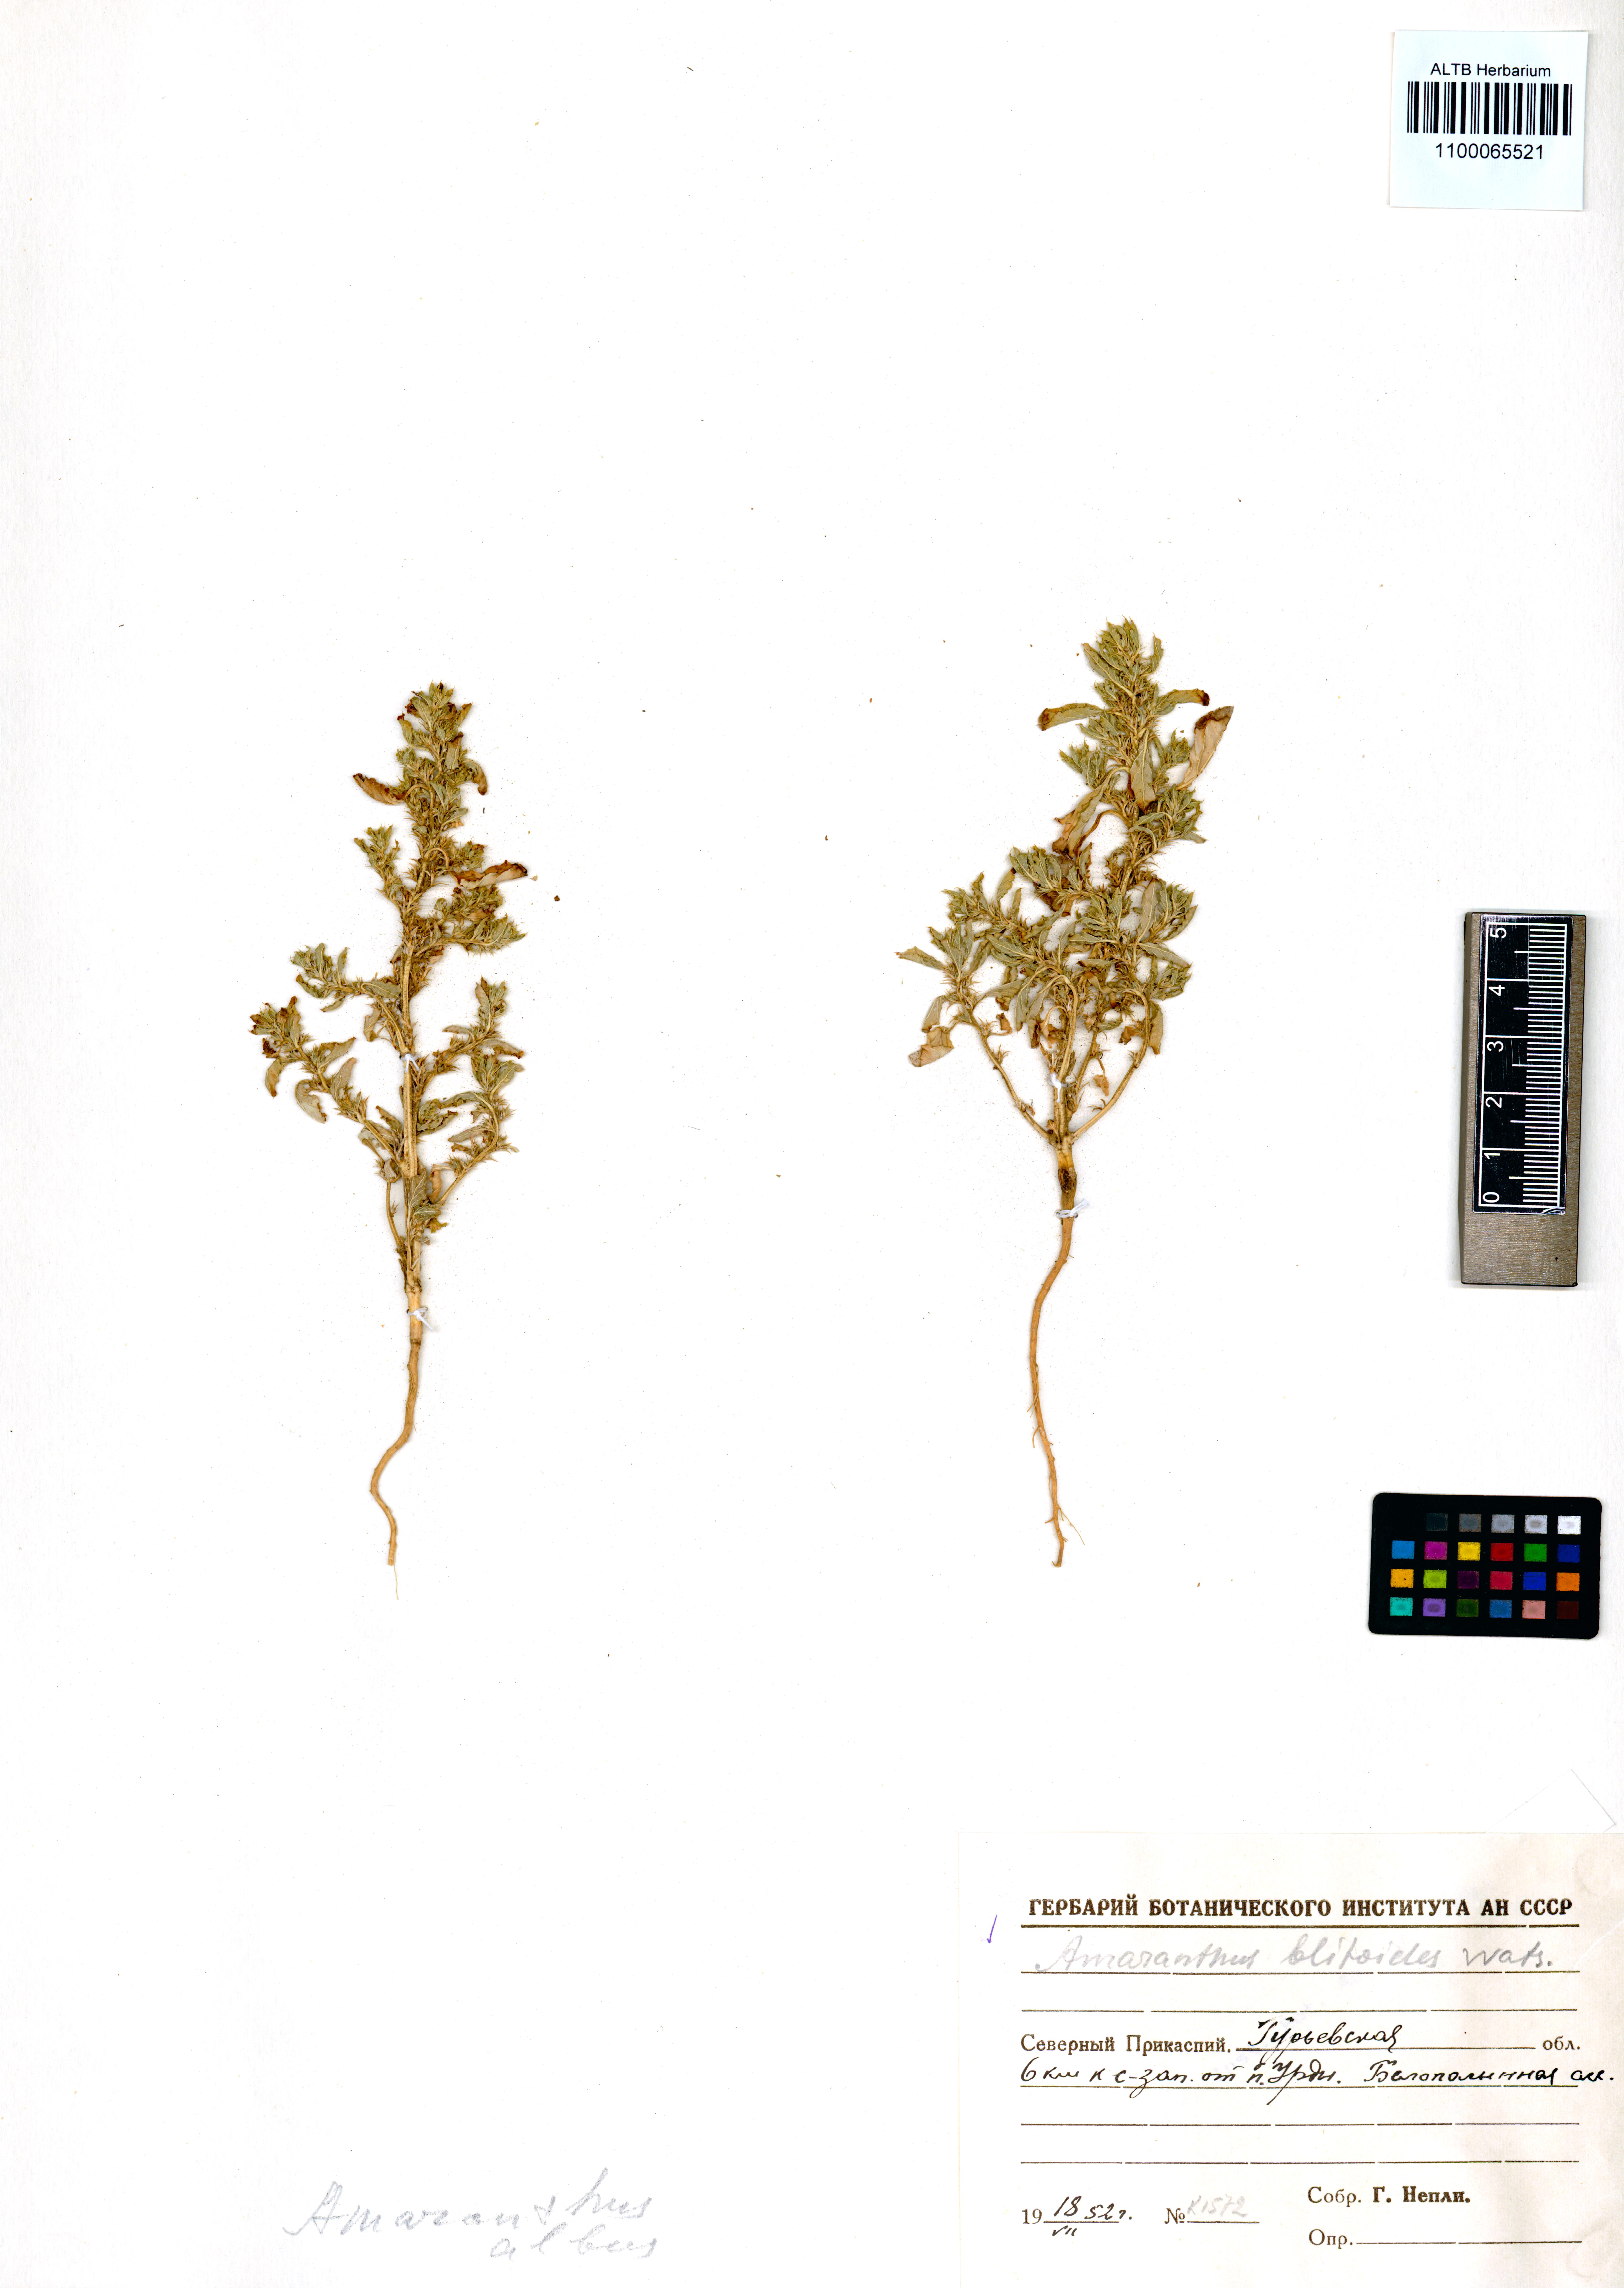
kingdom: Plantae
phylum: Tracheophyta
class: Magnoliopsida
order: Caryophyllales
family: Amaranthaceae
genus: Amaranthus
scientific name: Amaranthus blitoides
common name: Prostrate pigweed
